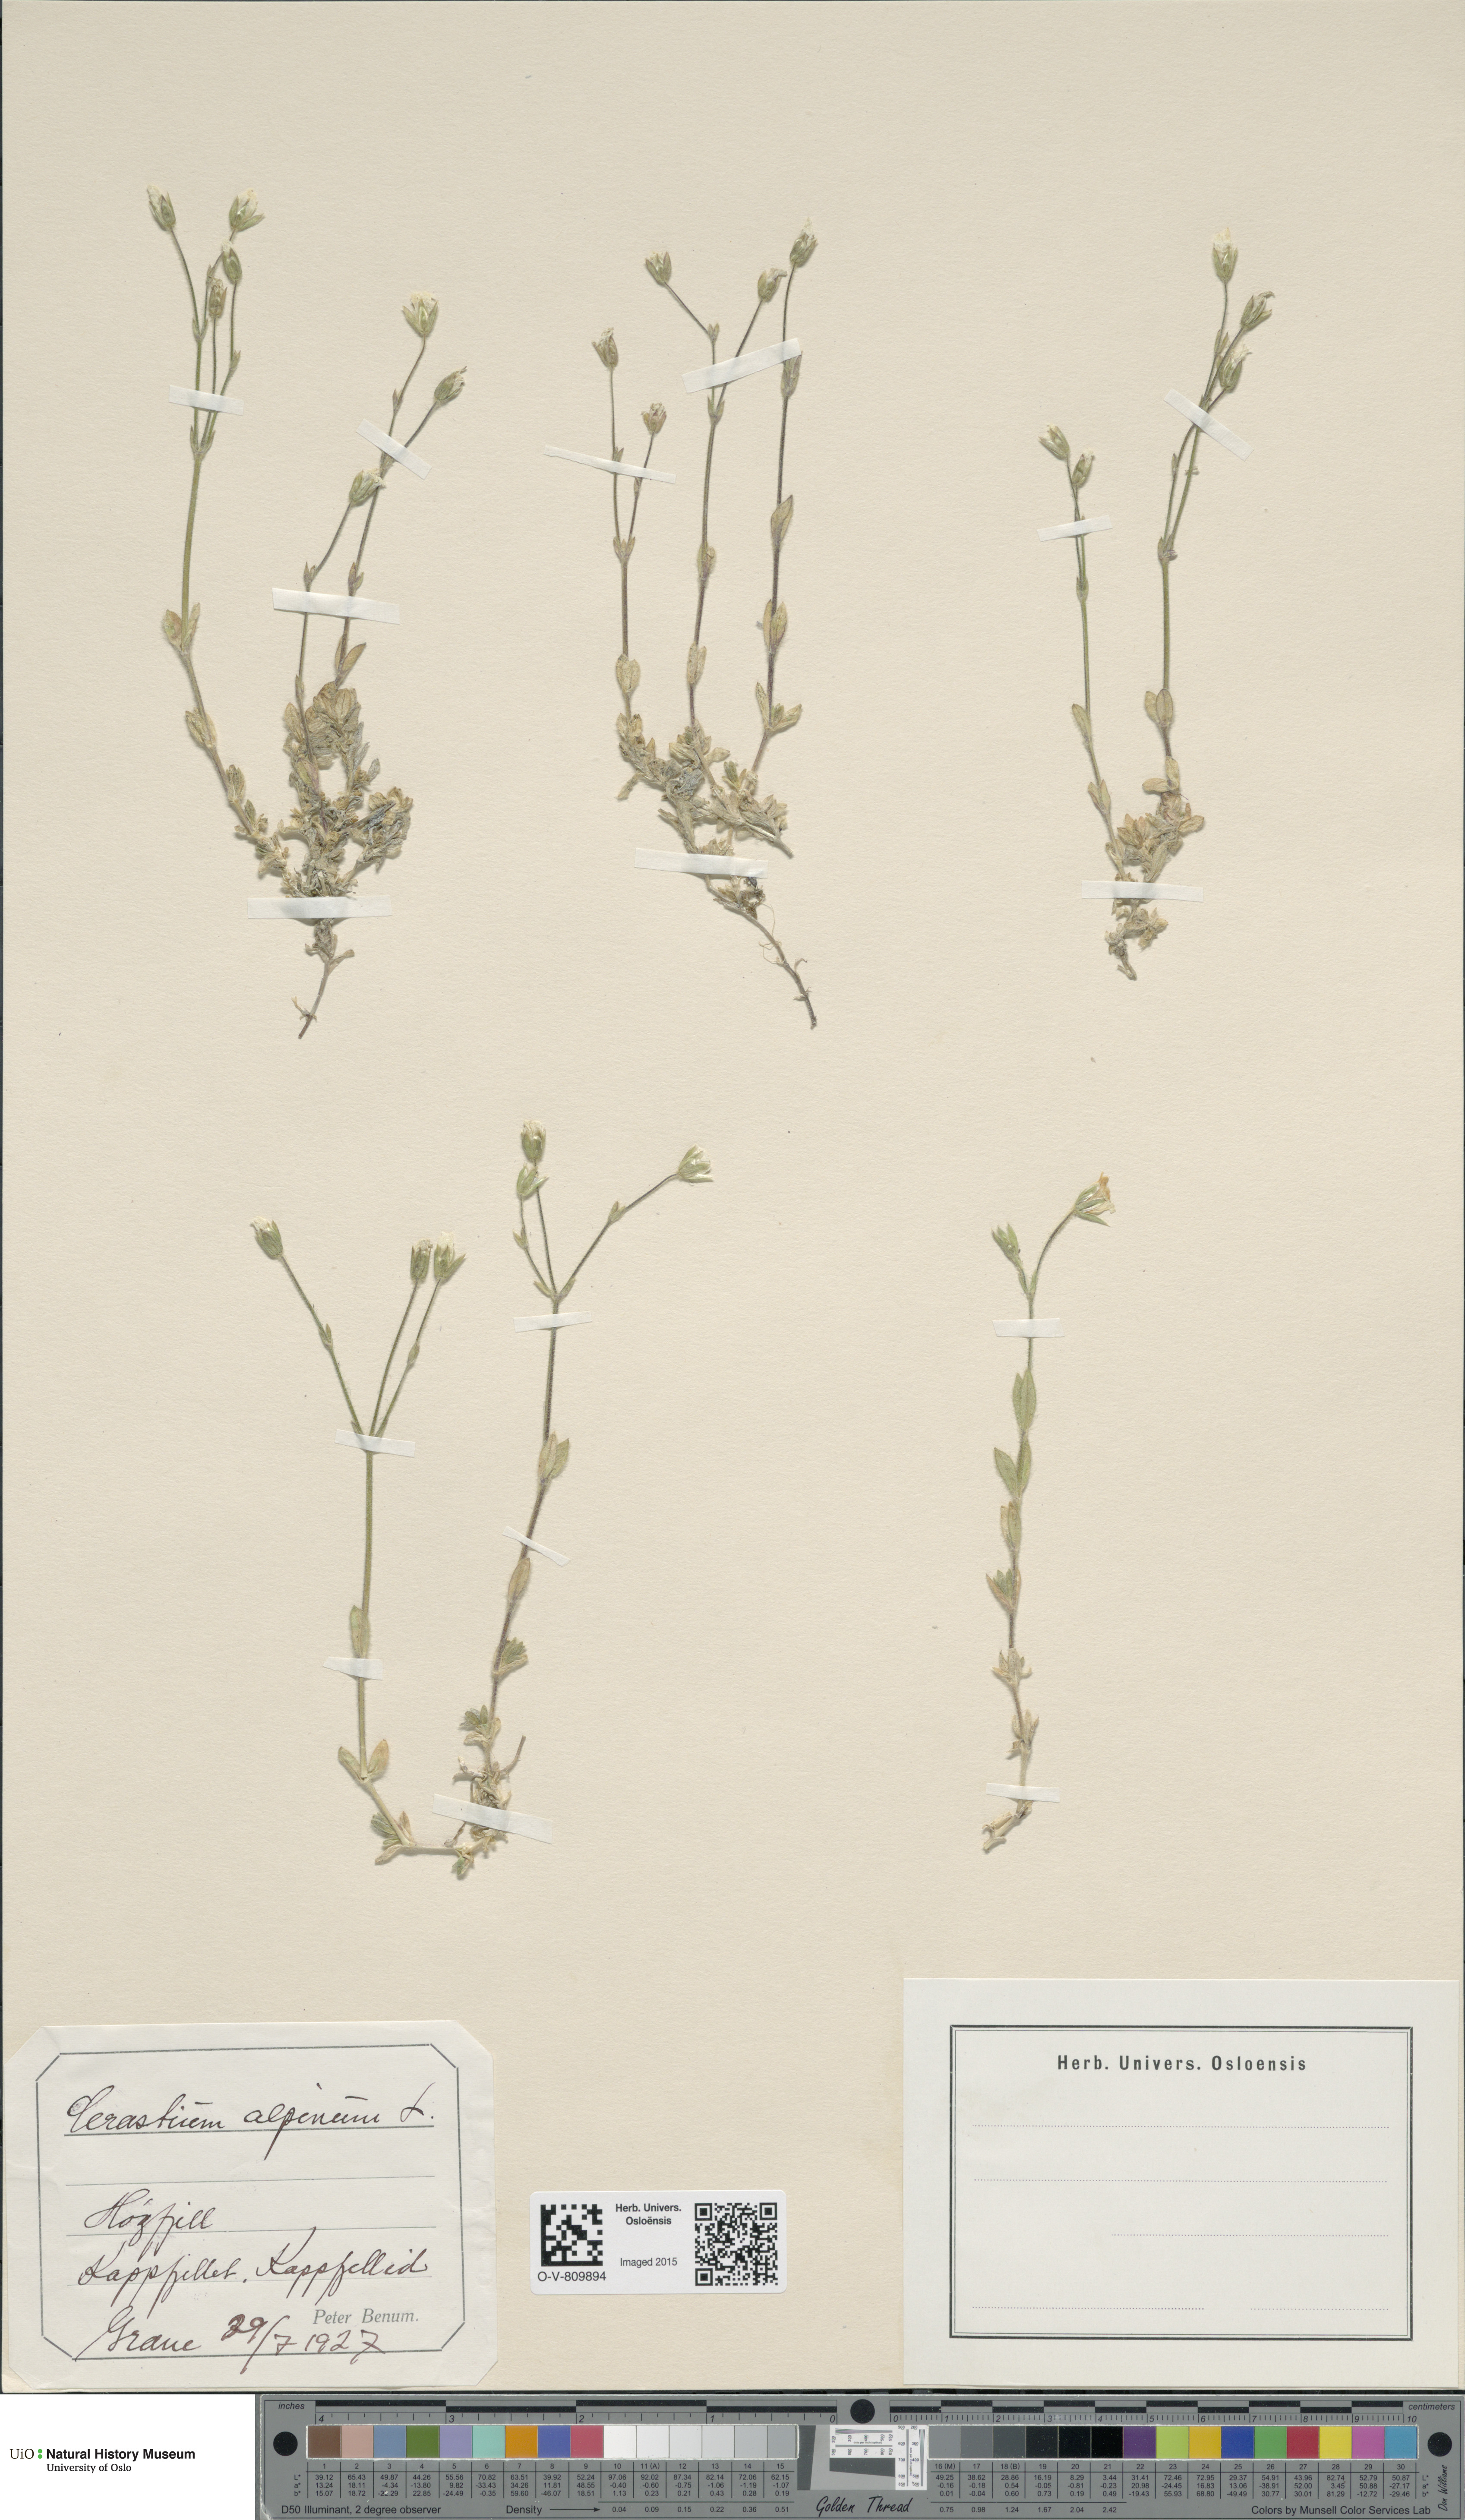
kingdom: Plantae
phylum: Tracheophyta
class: Magnoliopsida
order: Caryophyllales
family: Caryophyllaceae
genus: Cerastium
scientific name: Cerastium alpinum
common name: Alpine mouse-ear
